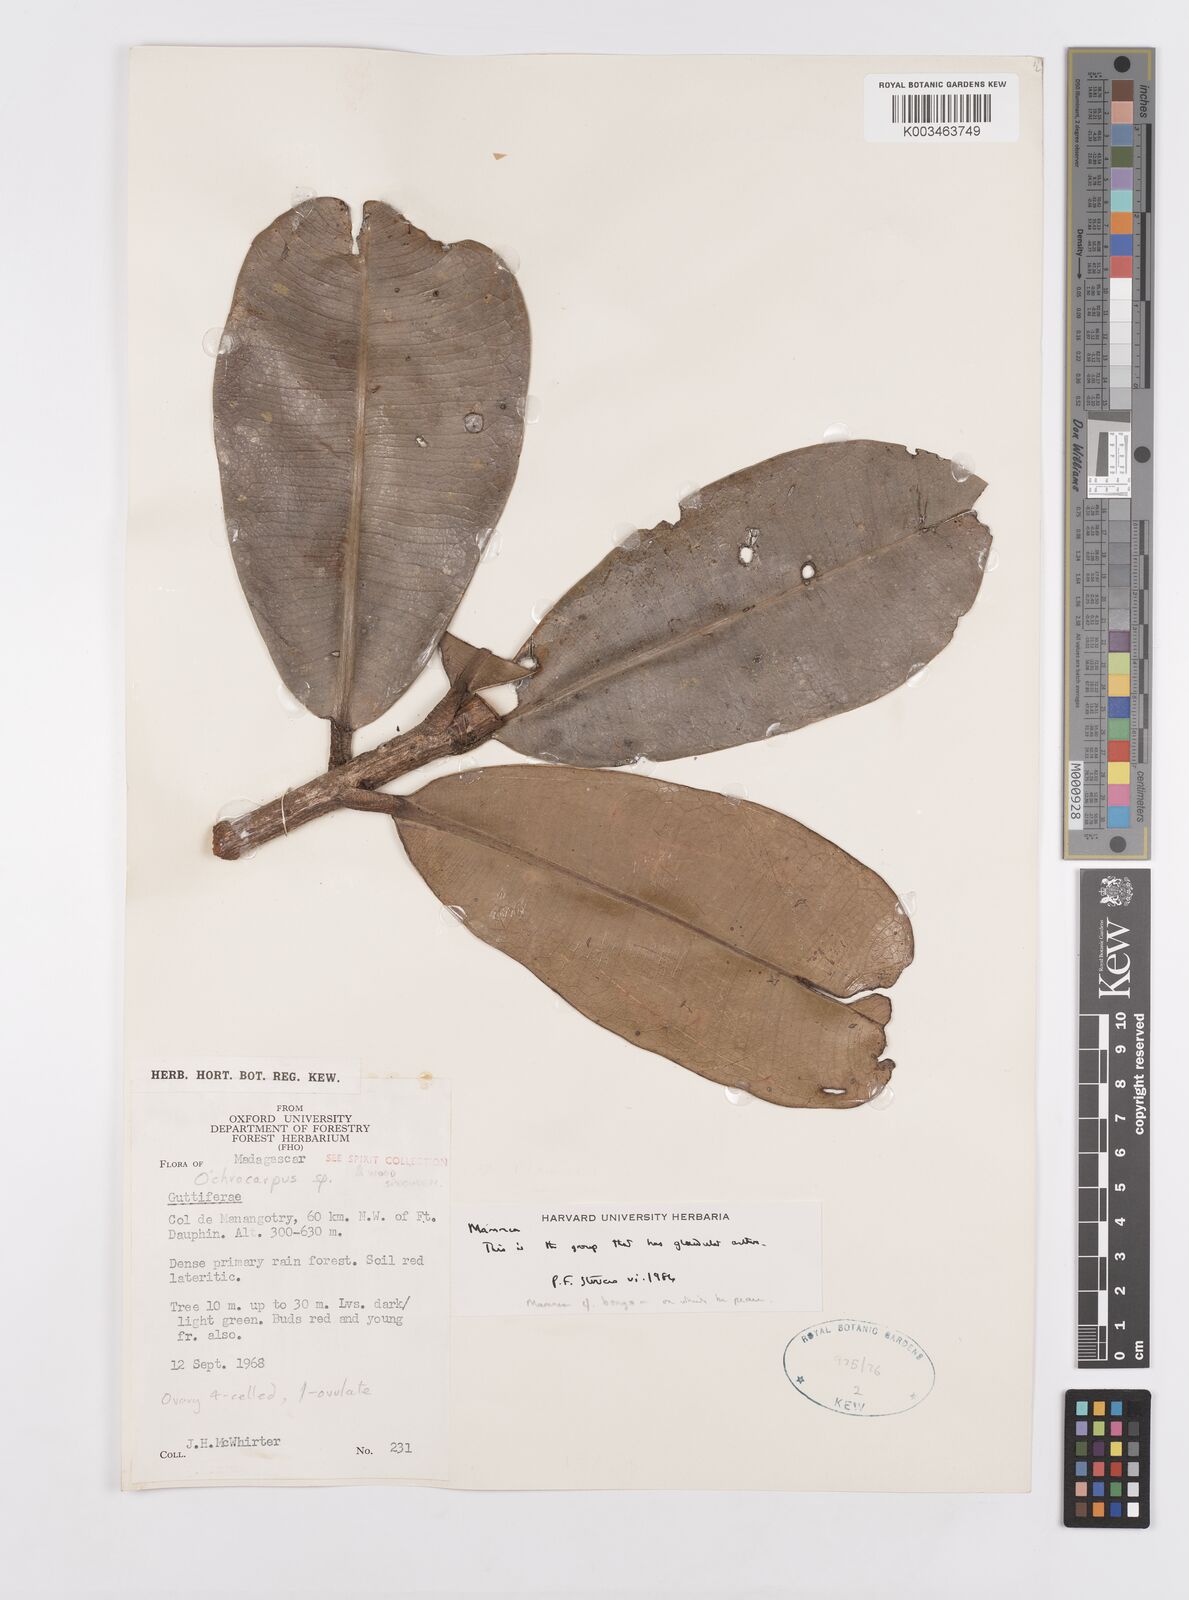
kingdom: Plantae
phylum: Tracheophyta
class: Magnoliopsida
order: Malpighiales
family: Calophyllaceae
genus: Mammea
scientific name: Mammea bongo
